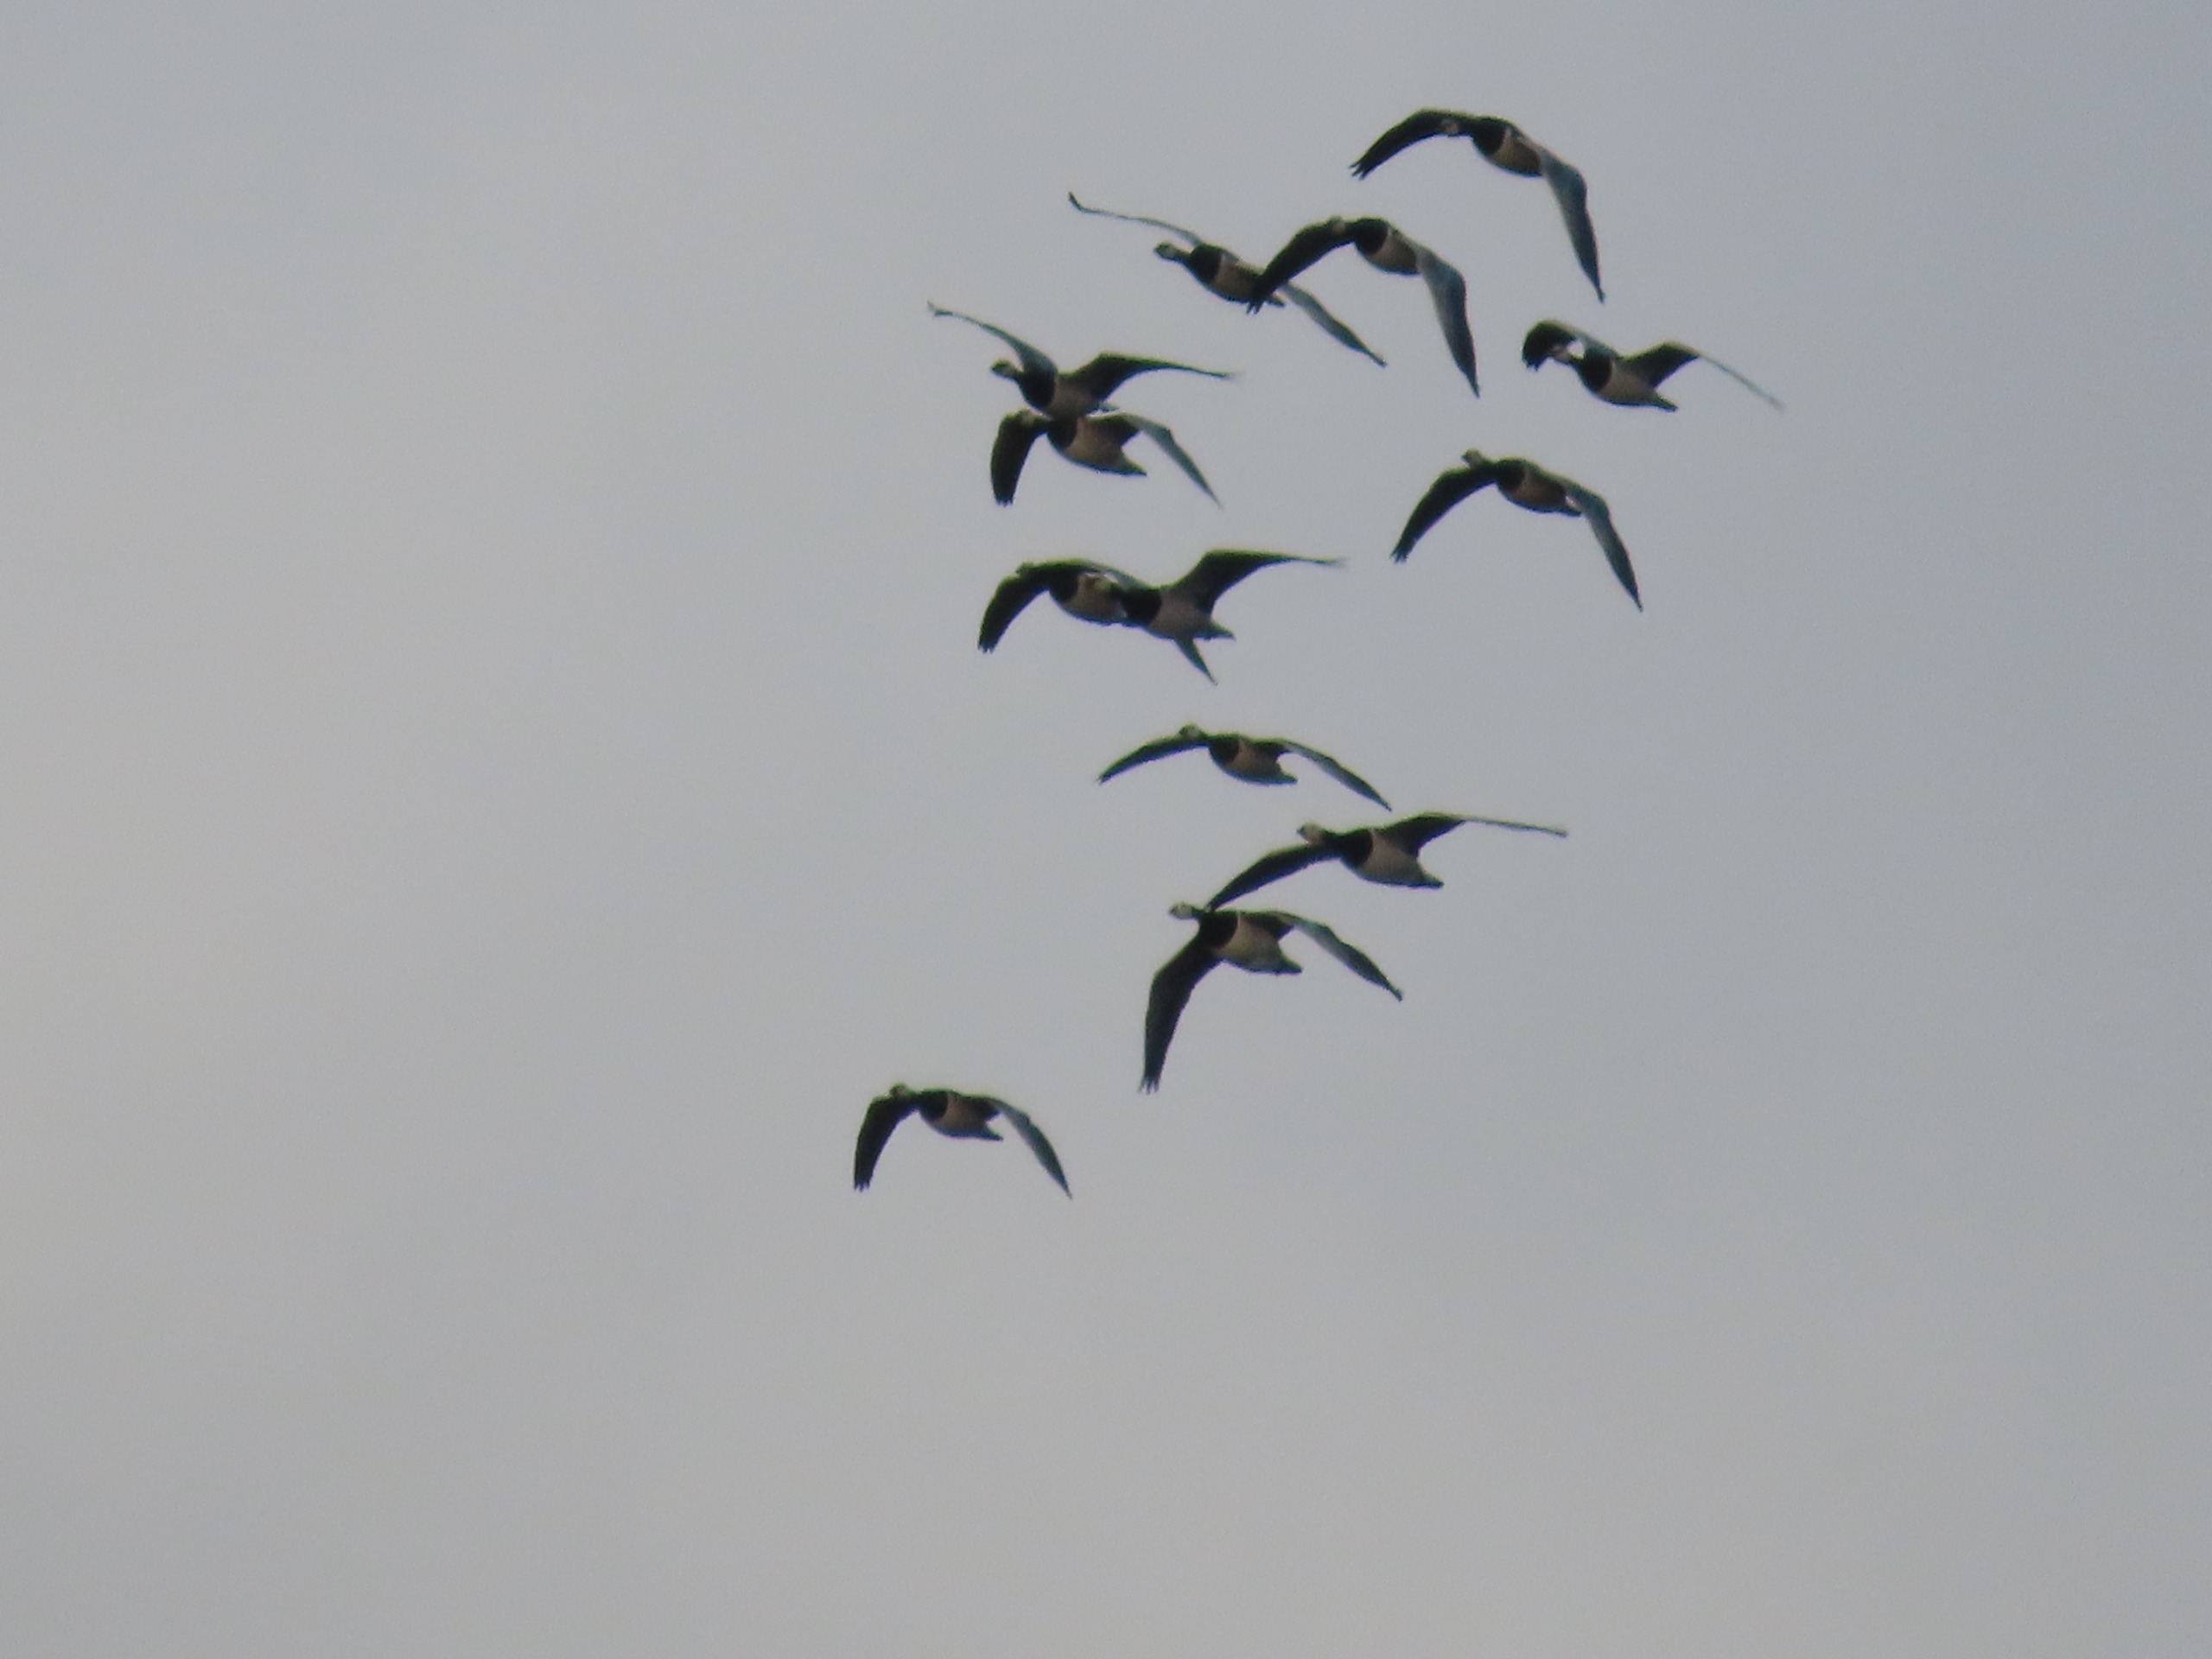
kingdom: Animalia
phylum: Chordata
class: Aves
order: Anseriformes
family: Anatidae
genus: Branta
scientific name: Branta leucopsis
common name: Bramgås
